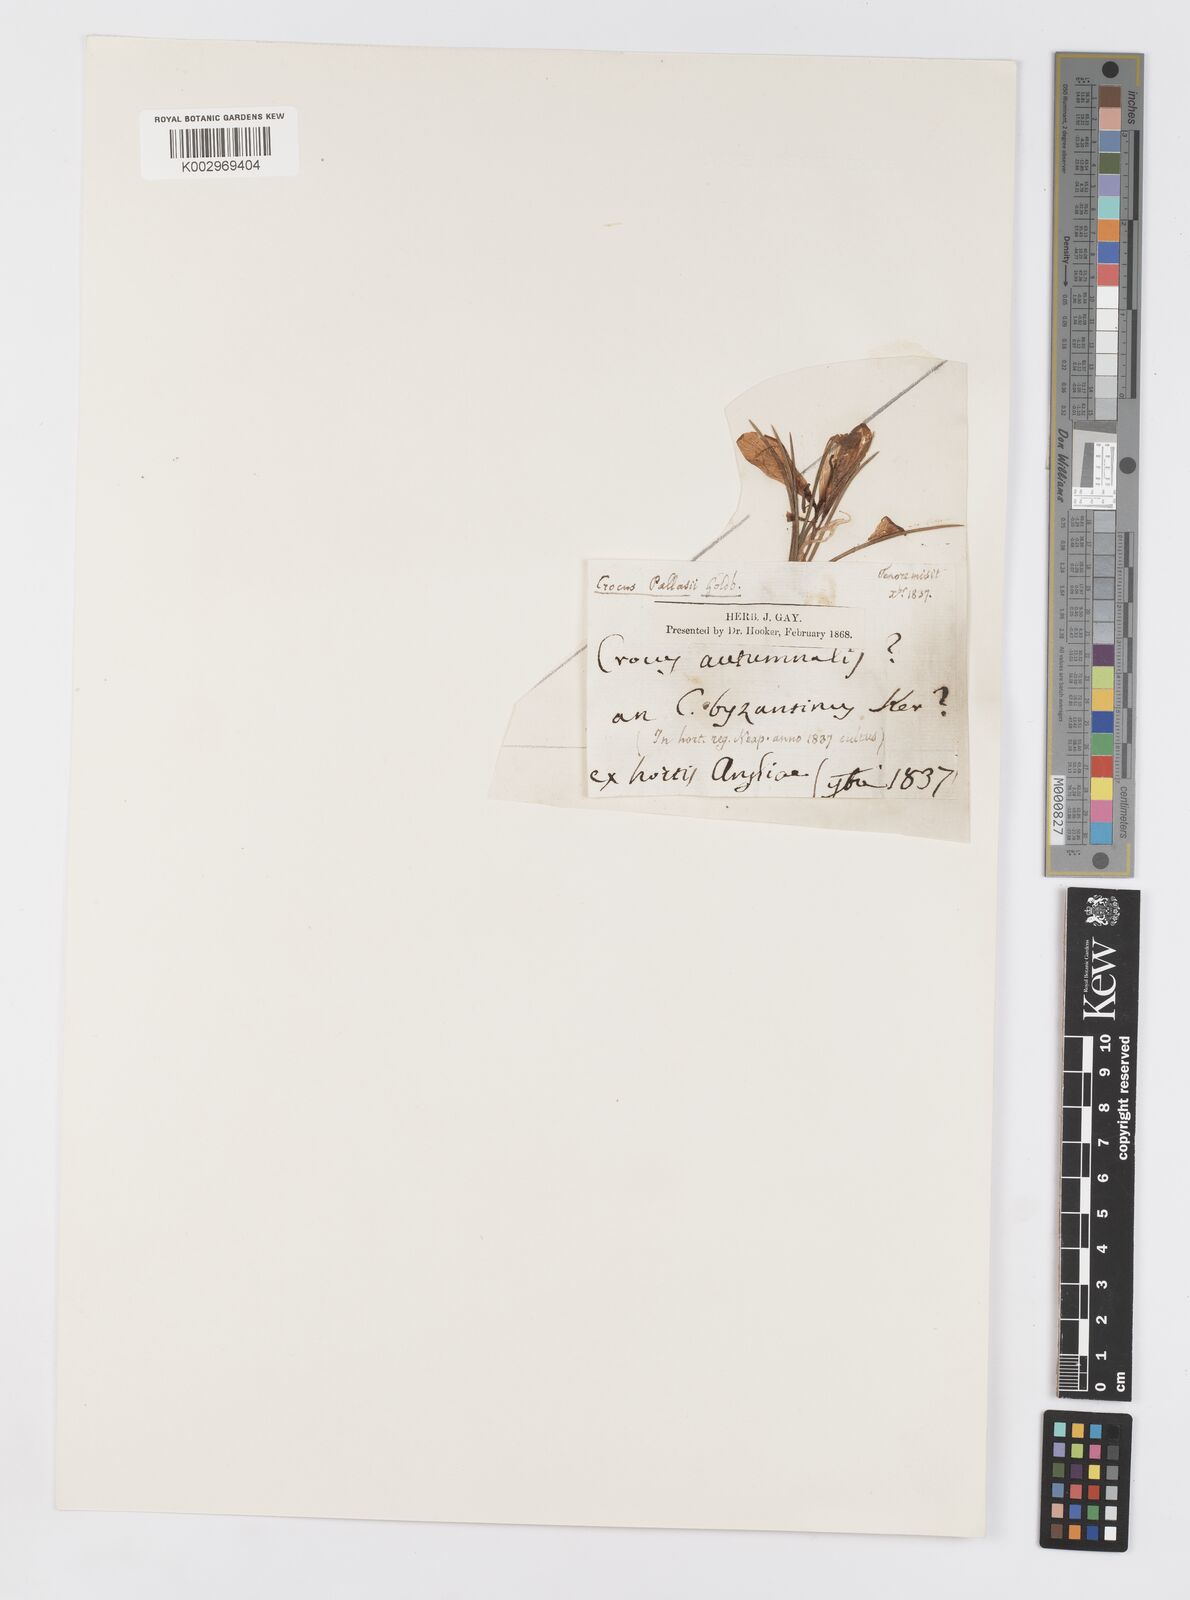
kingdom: Plantae
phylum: Tracheophyta
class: Liliopsida
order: Asparagales
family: Iridaceae
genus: Crocus
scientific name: Crocus sativus
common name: Saffron crocus
